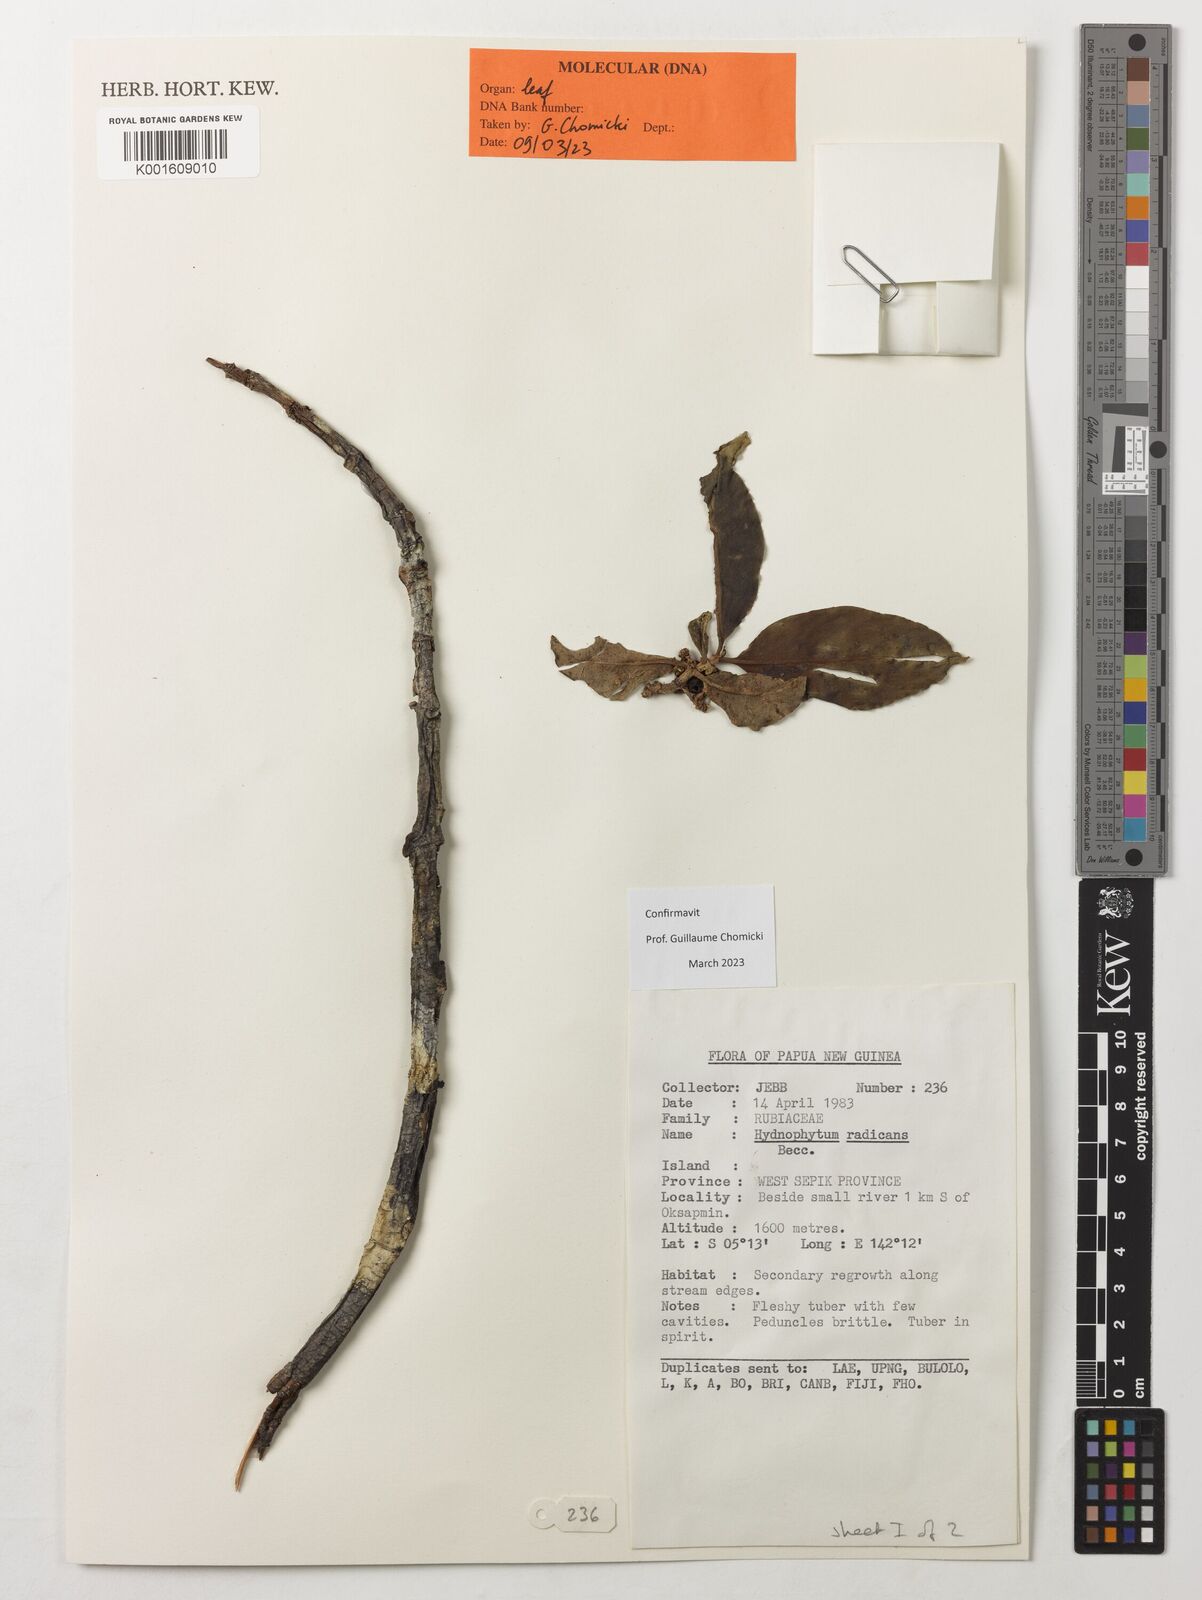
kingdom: Plantae
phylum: Tracheophyta
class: Magnoliopsida
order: Gentianales
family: Rubiaceae
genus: Hydnophytum
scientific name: Hydnophytum radicans
